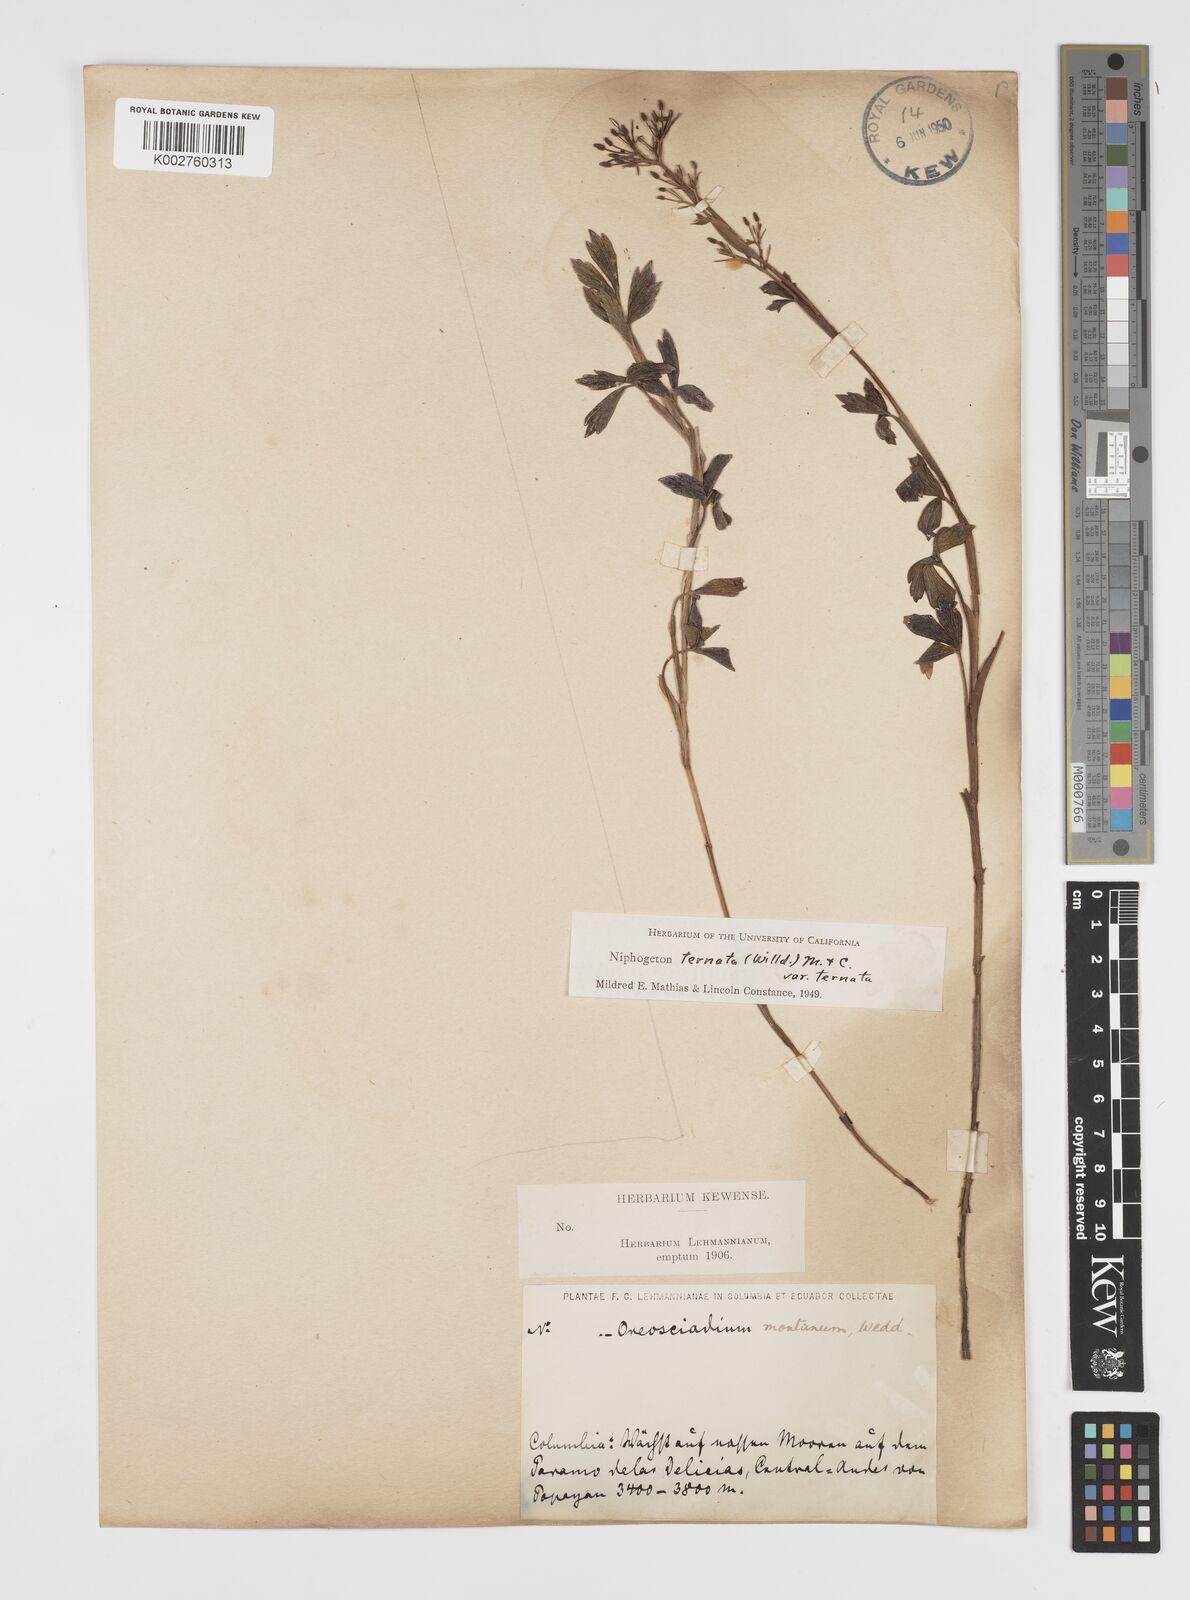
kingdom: Plantae
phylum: Tracheophyta
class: Magnoliopsida
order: Apiales
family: Apiaceae
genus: Niphogeton
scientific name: Niphogeton ternata
